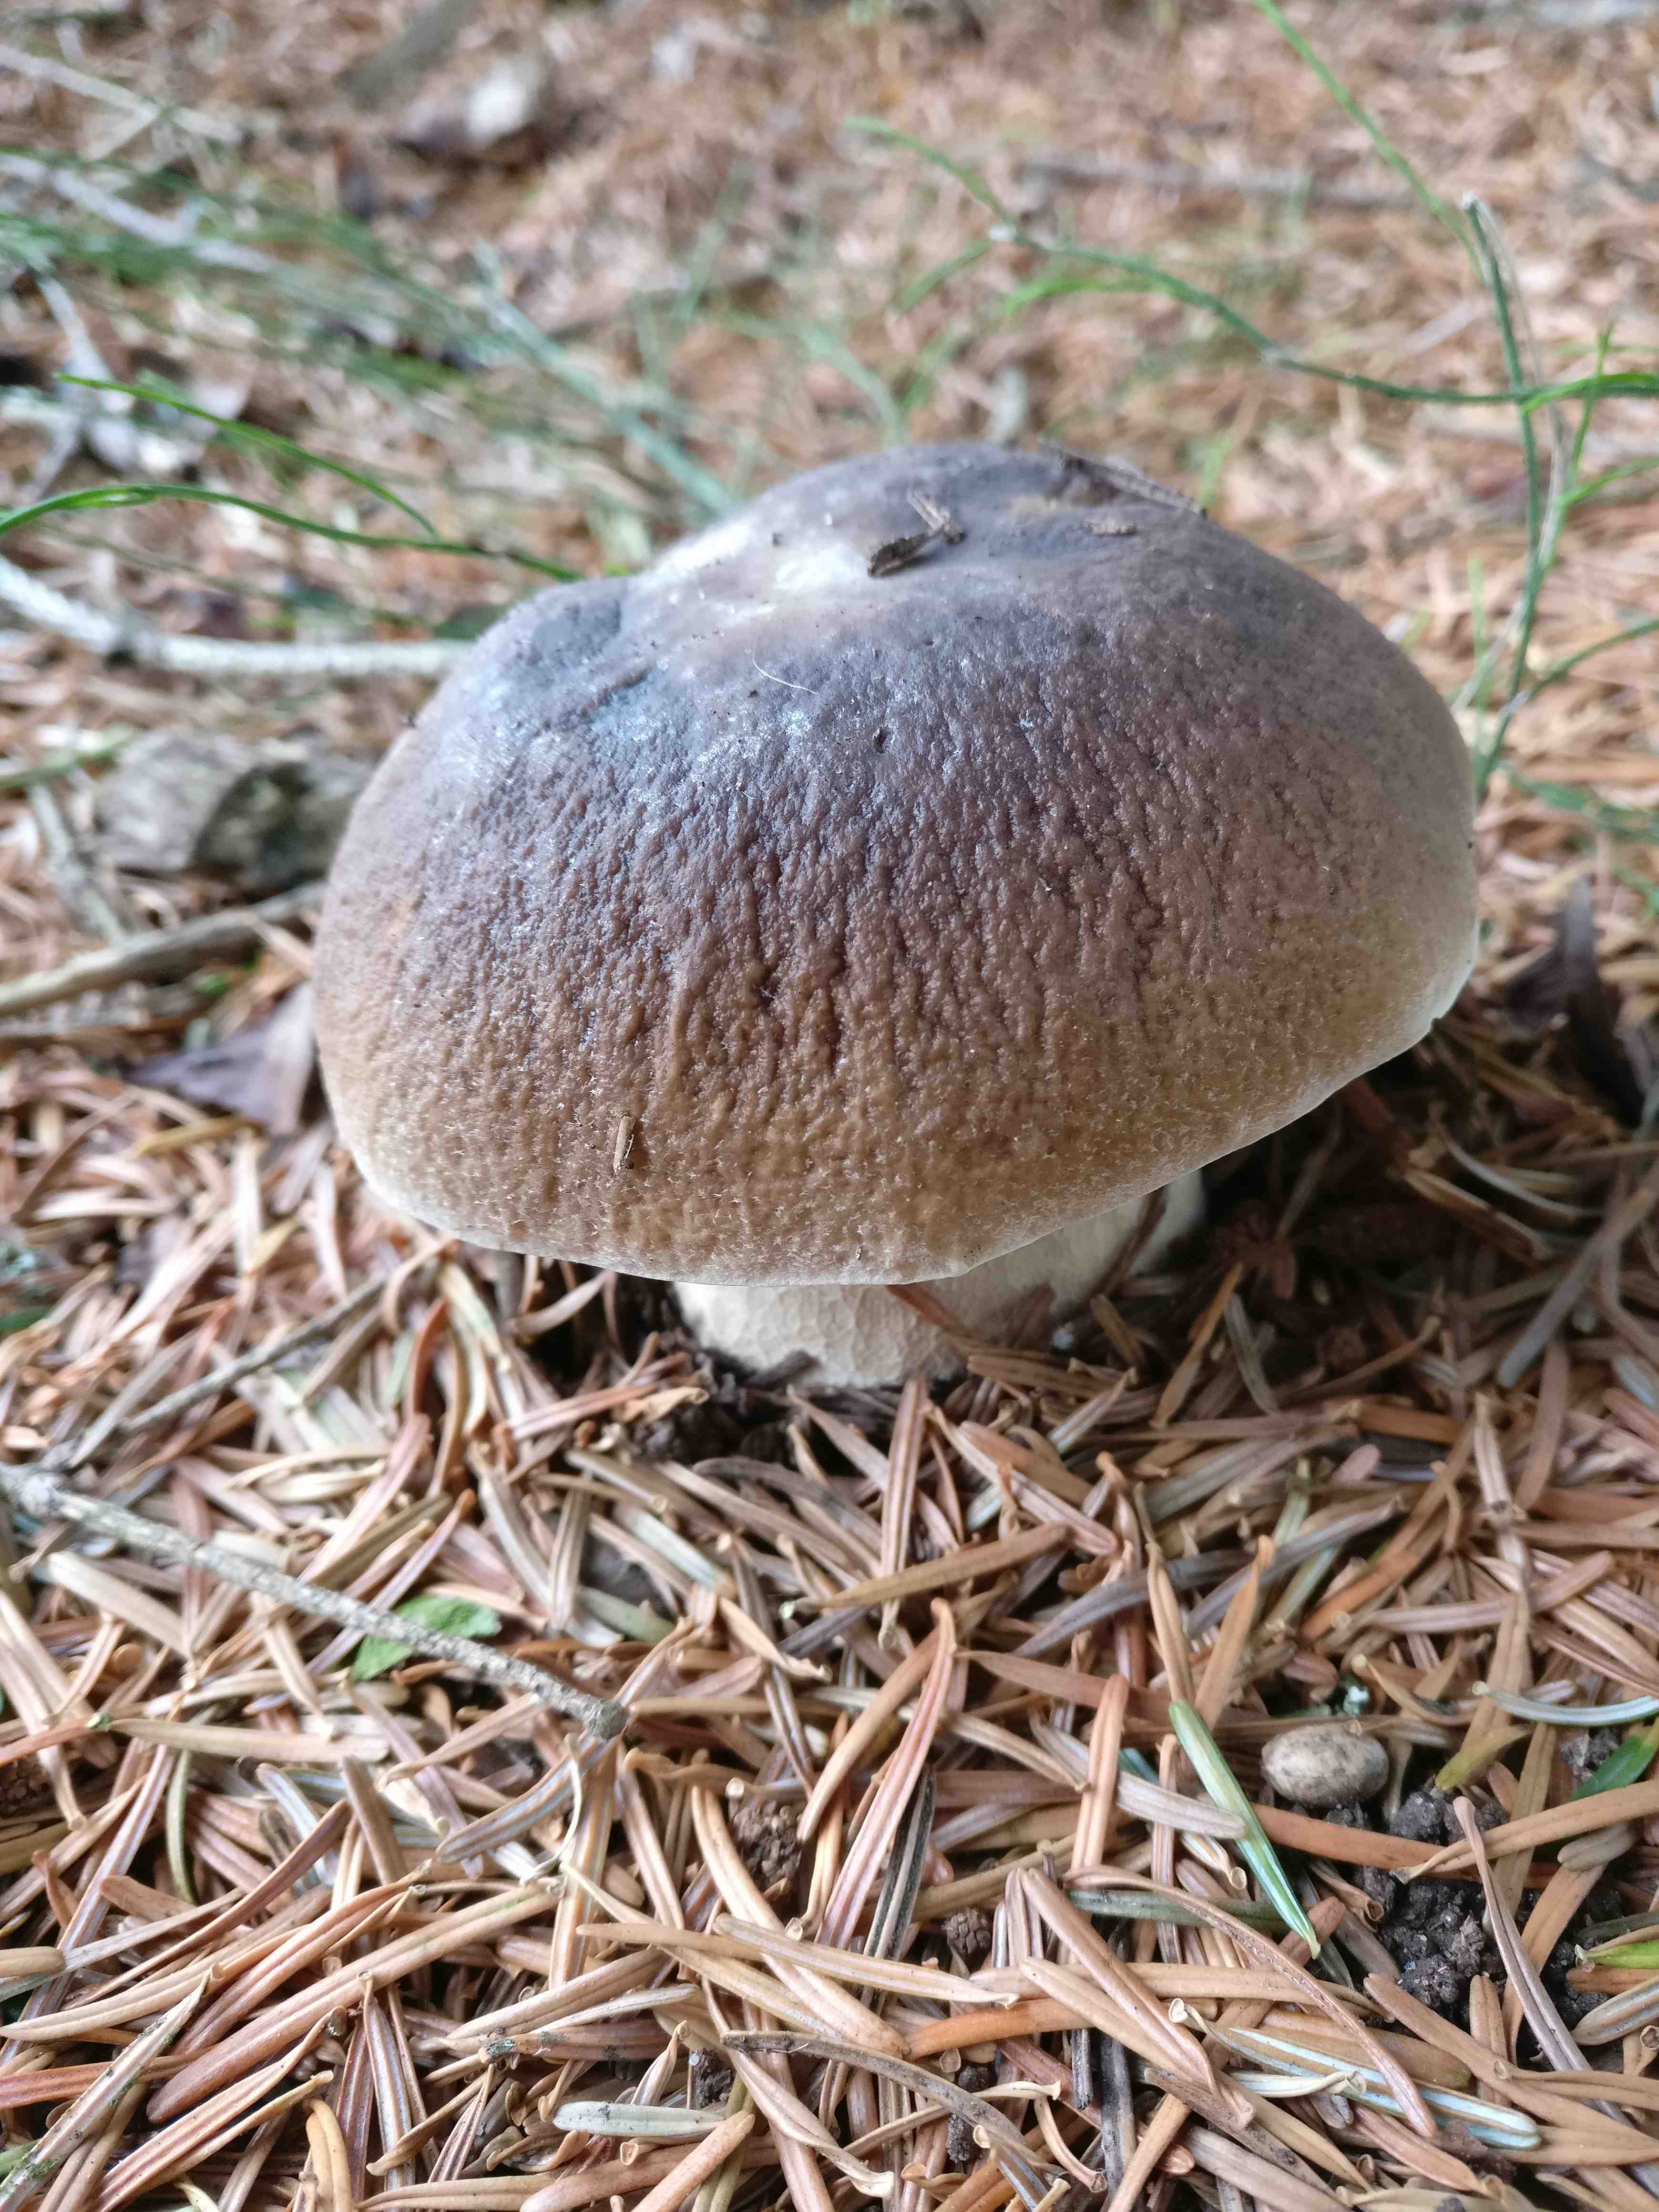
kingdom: Fungi
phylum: Basidiomycota
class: Agaricomycetes
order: Boletales
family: Boletaceae
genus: Boletus
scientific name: Boletus edulis
